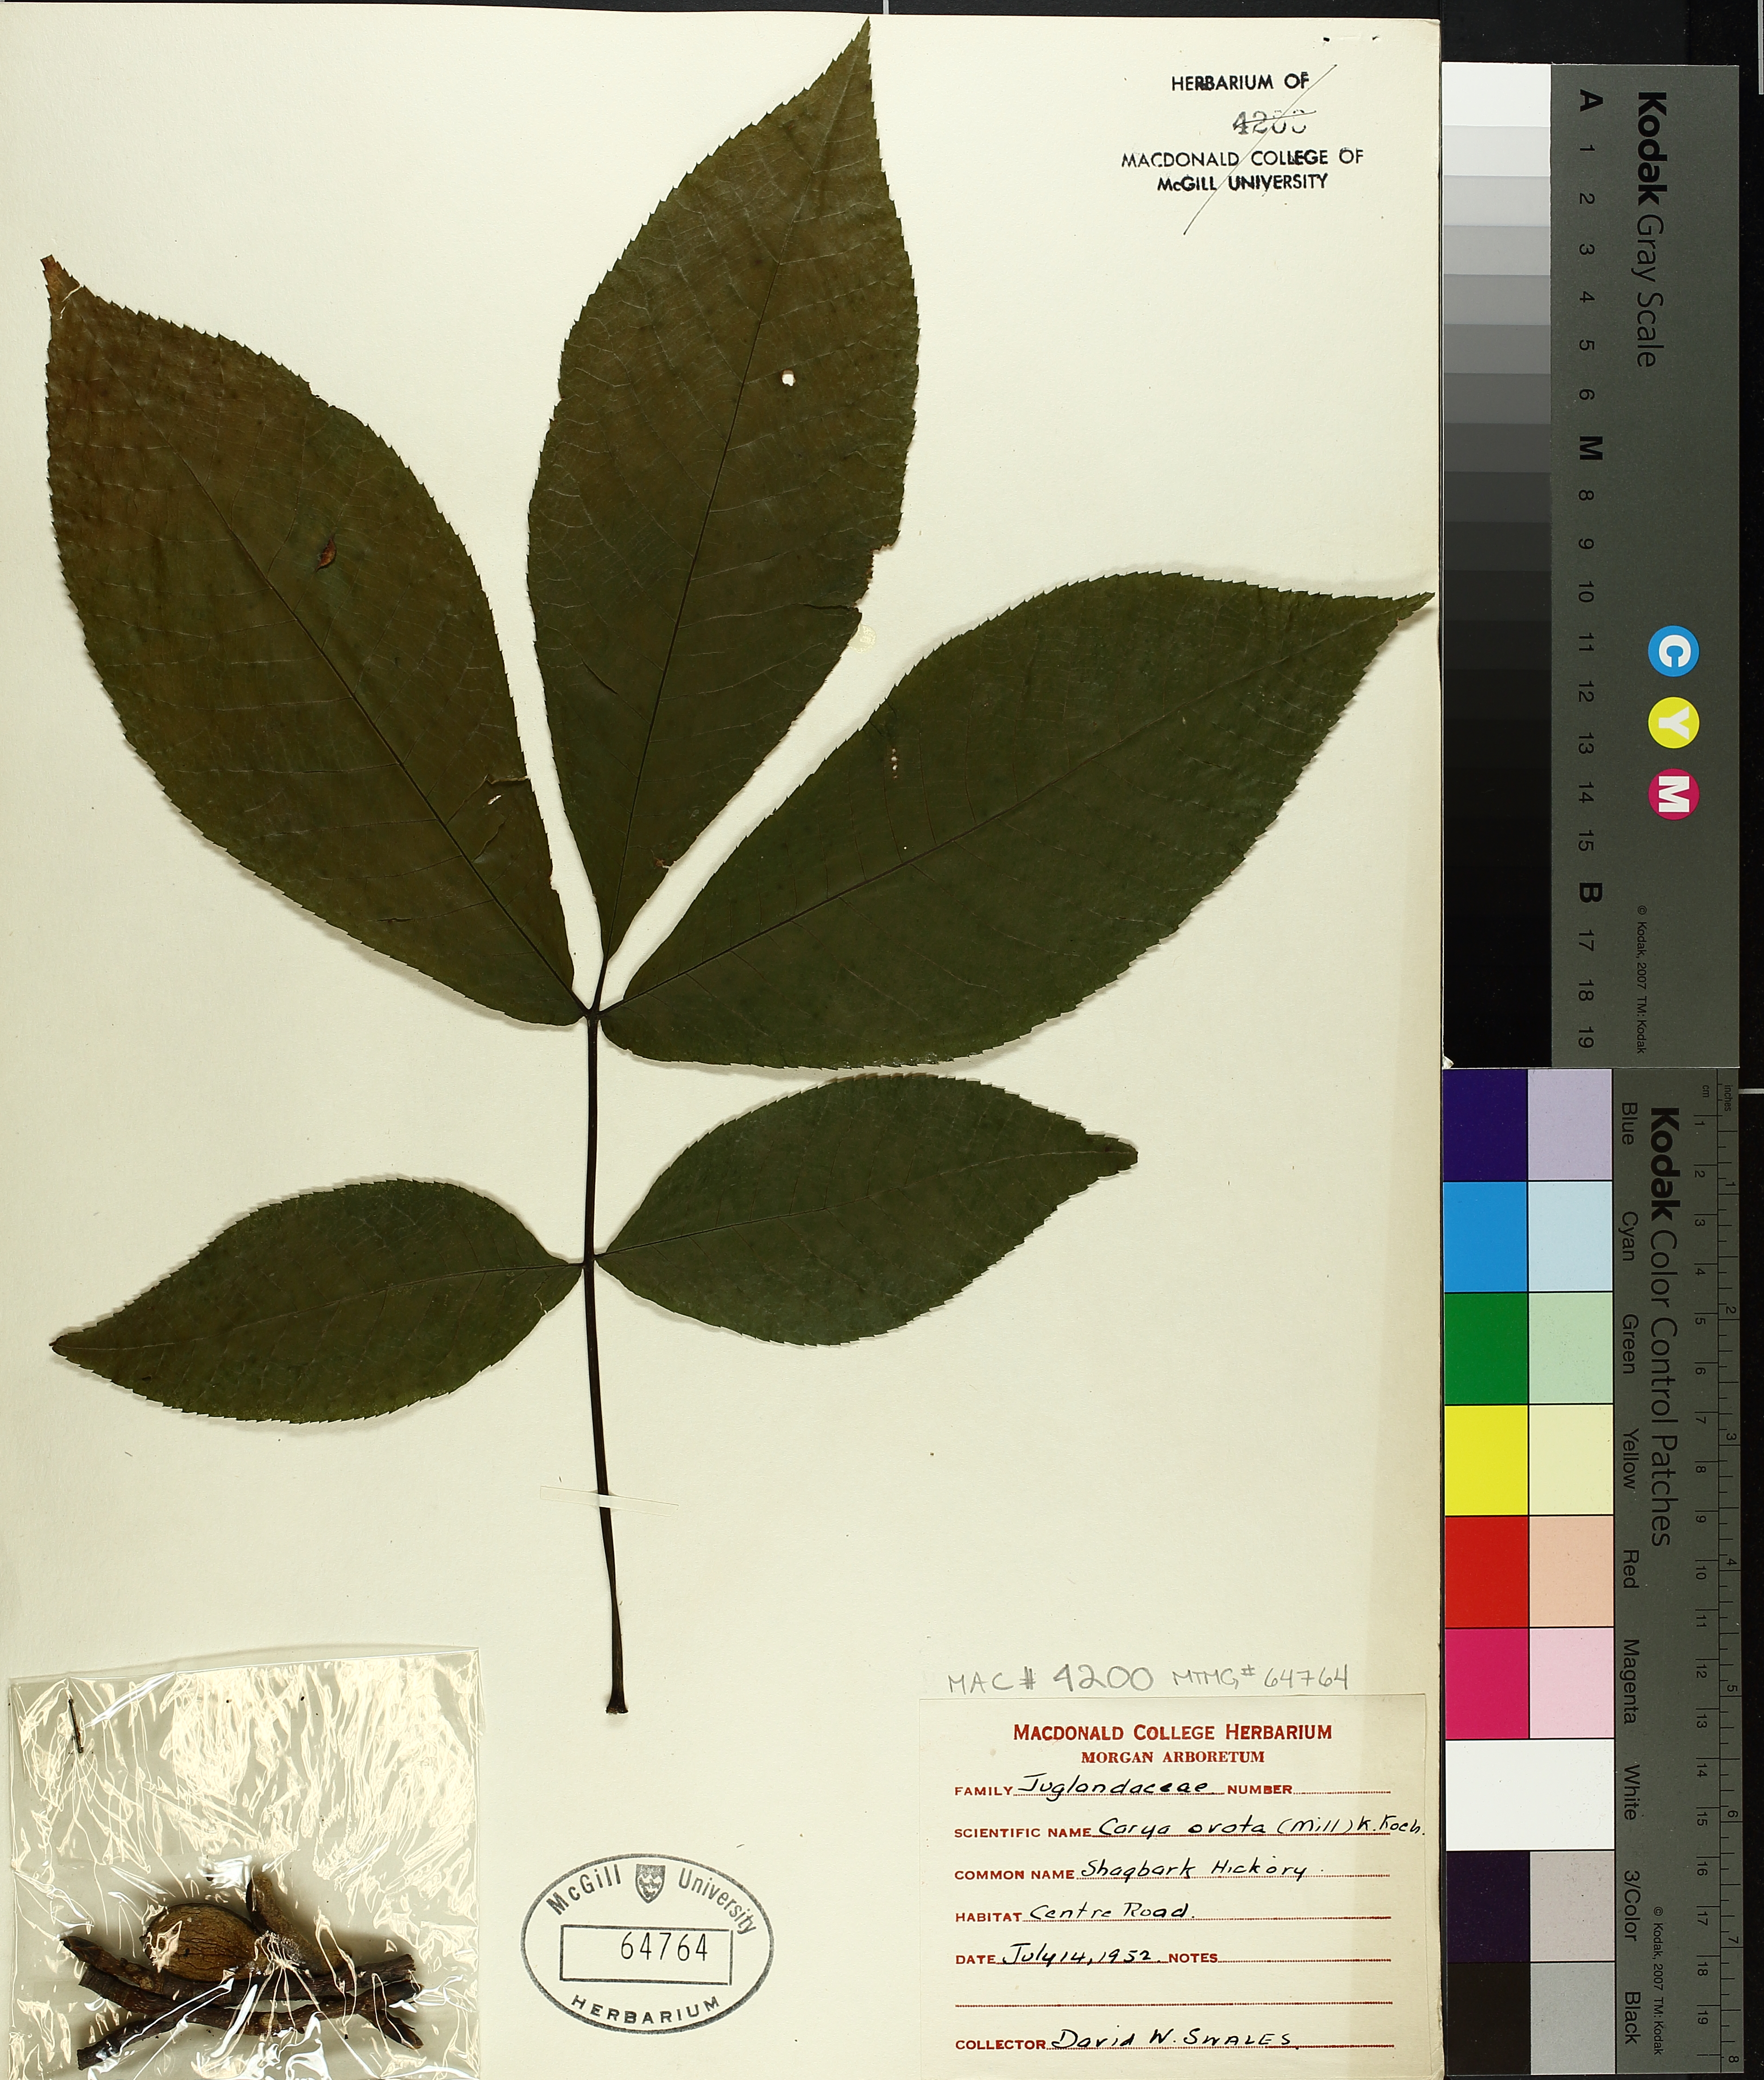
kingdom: Plantae
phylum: Tracheophyta
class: Magnoliopsida
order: Fagales
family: Juglandaceae
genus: Carya
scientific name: Carya ovata
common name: Shagbark hickory
